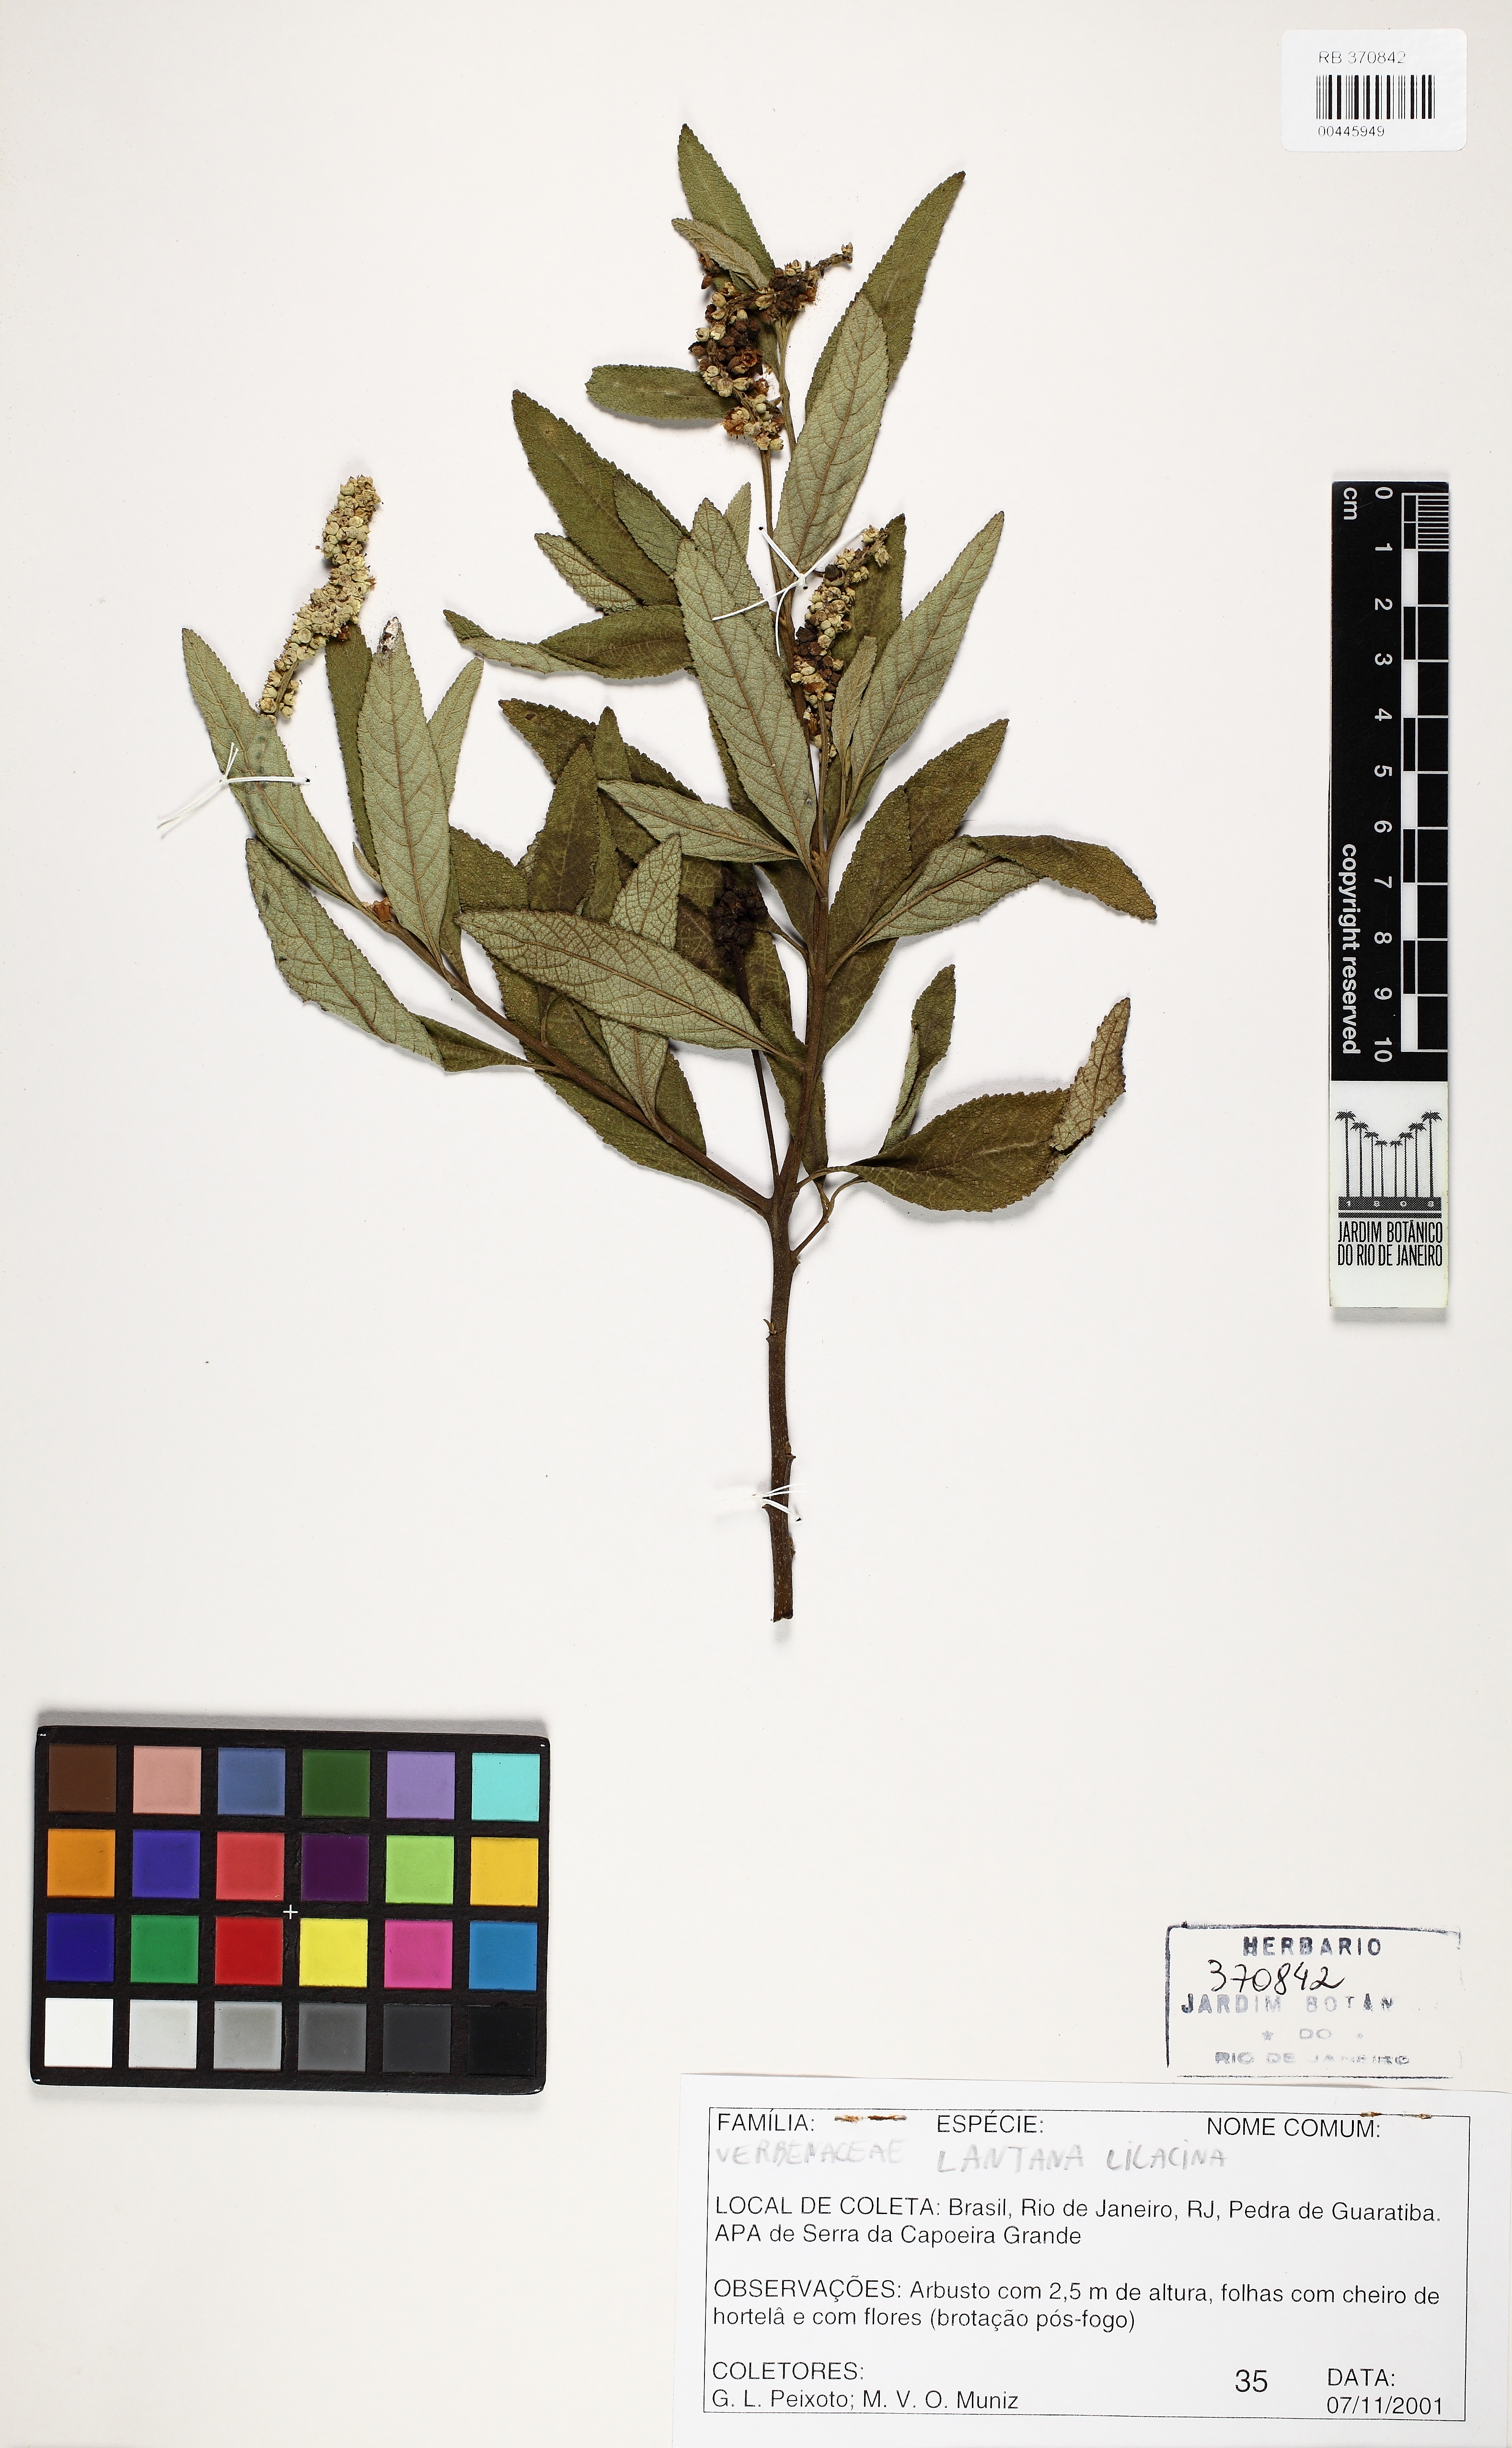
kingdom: Plantae
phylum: Tracheophyta
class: Magnoliopsida
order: Lamiales
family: Verbenaceae
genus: Lantana
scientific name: Lantana fucata
